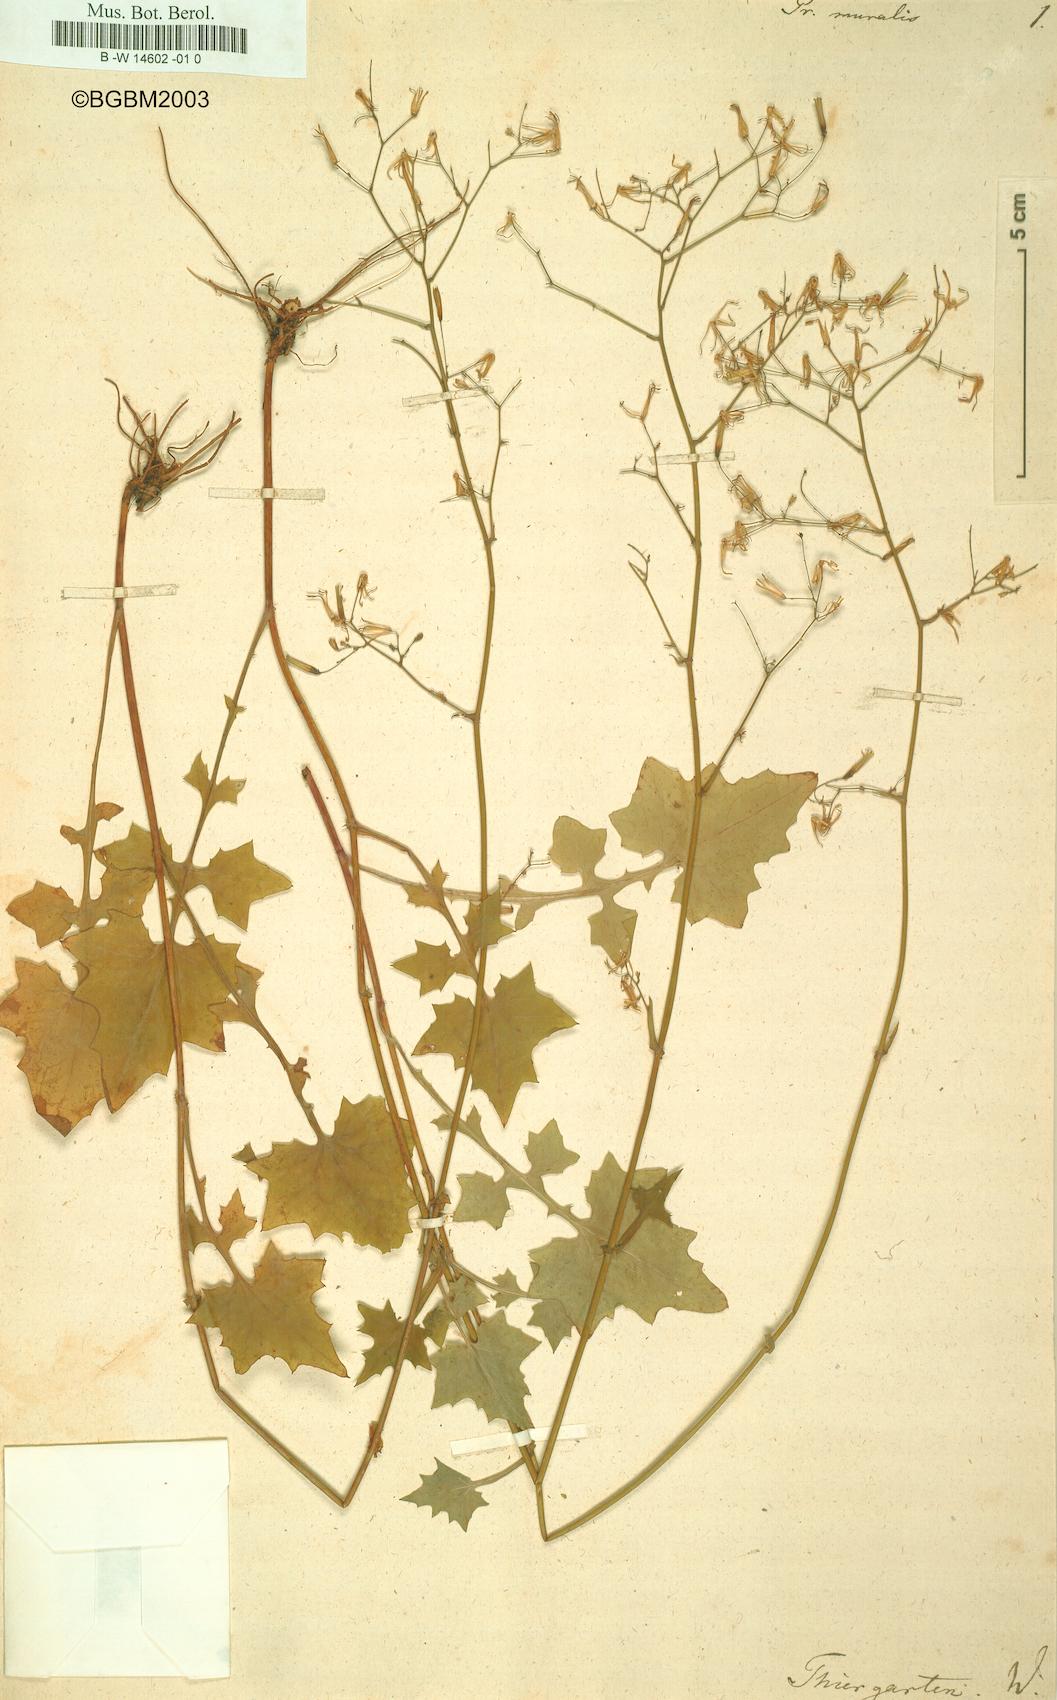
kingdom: Plantae
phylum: Tracheophyta
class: Magnoliopsida
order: Asterales
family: Asteraceae
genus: Mycelis
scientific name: Mycelis muralis
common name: Wall lettuce
